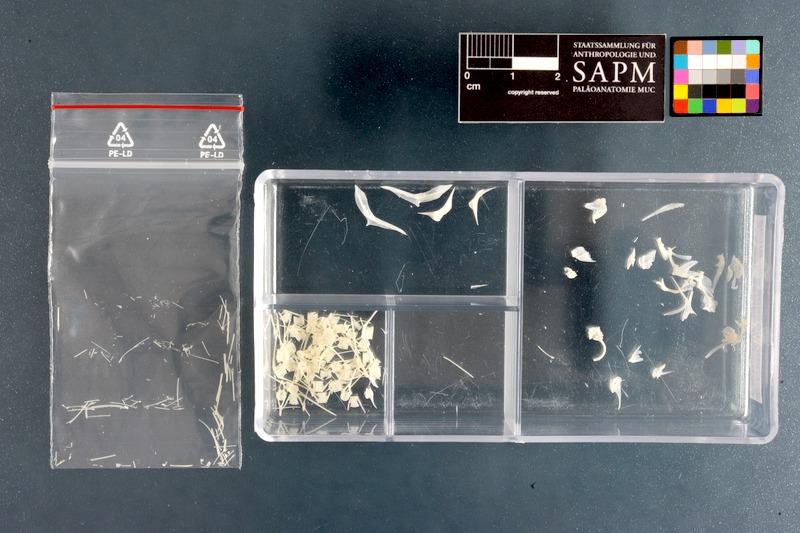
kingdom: Animalia
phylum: Chordata
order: Pleuronectiformes
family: Cynoglossidae
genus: Cynoglossus
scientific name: Cynoglossus capensis
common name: Sand tonguefish
